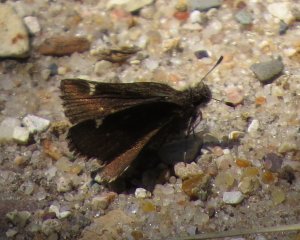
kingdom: Animalia
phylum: Arthropoda
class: Insecta
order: Lepidoptera
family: Hesperiidae
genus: Mastor
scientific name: Mastor vialis
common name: Common Roadside-Skipper
